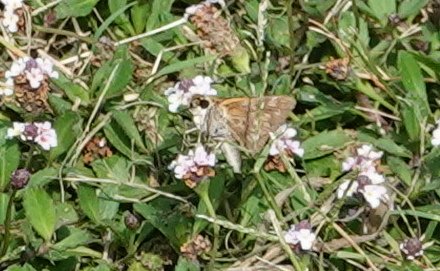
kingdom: Animalia
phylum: Arthropoda
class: Insecta
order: Lepidoptera
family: Hesperiidae
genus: Atalopedes
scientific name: Atalopedes campestris
